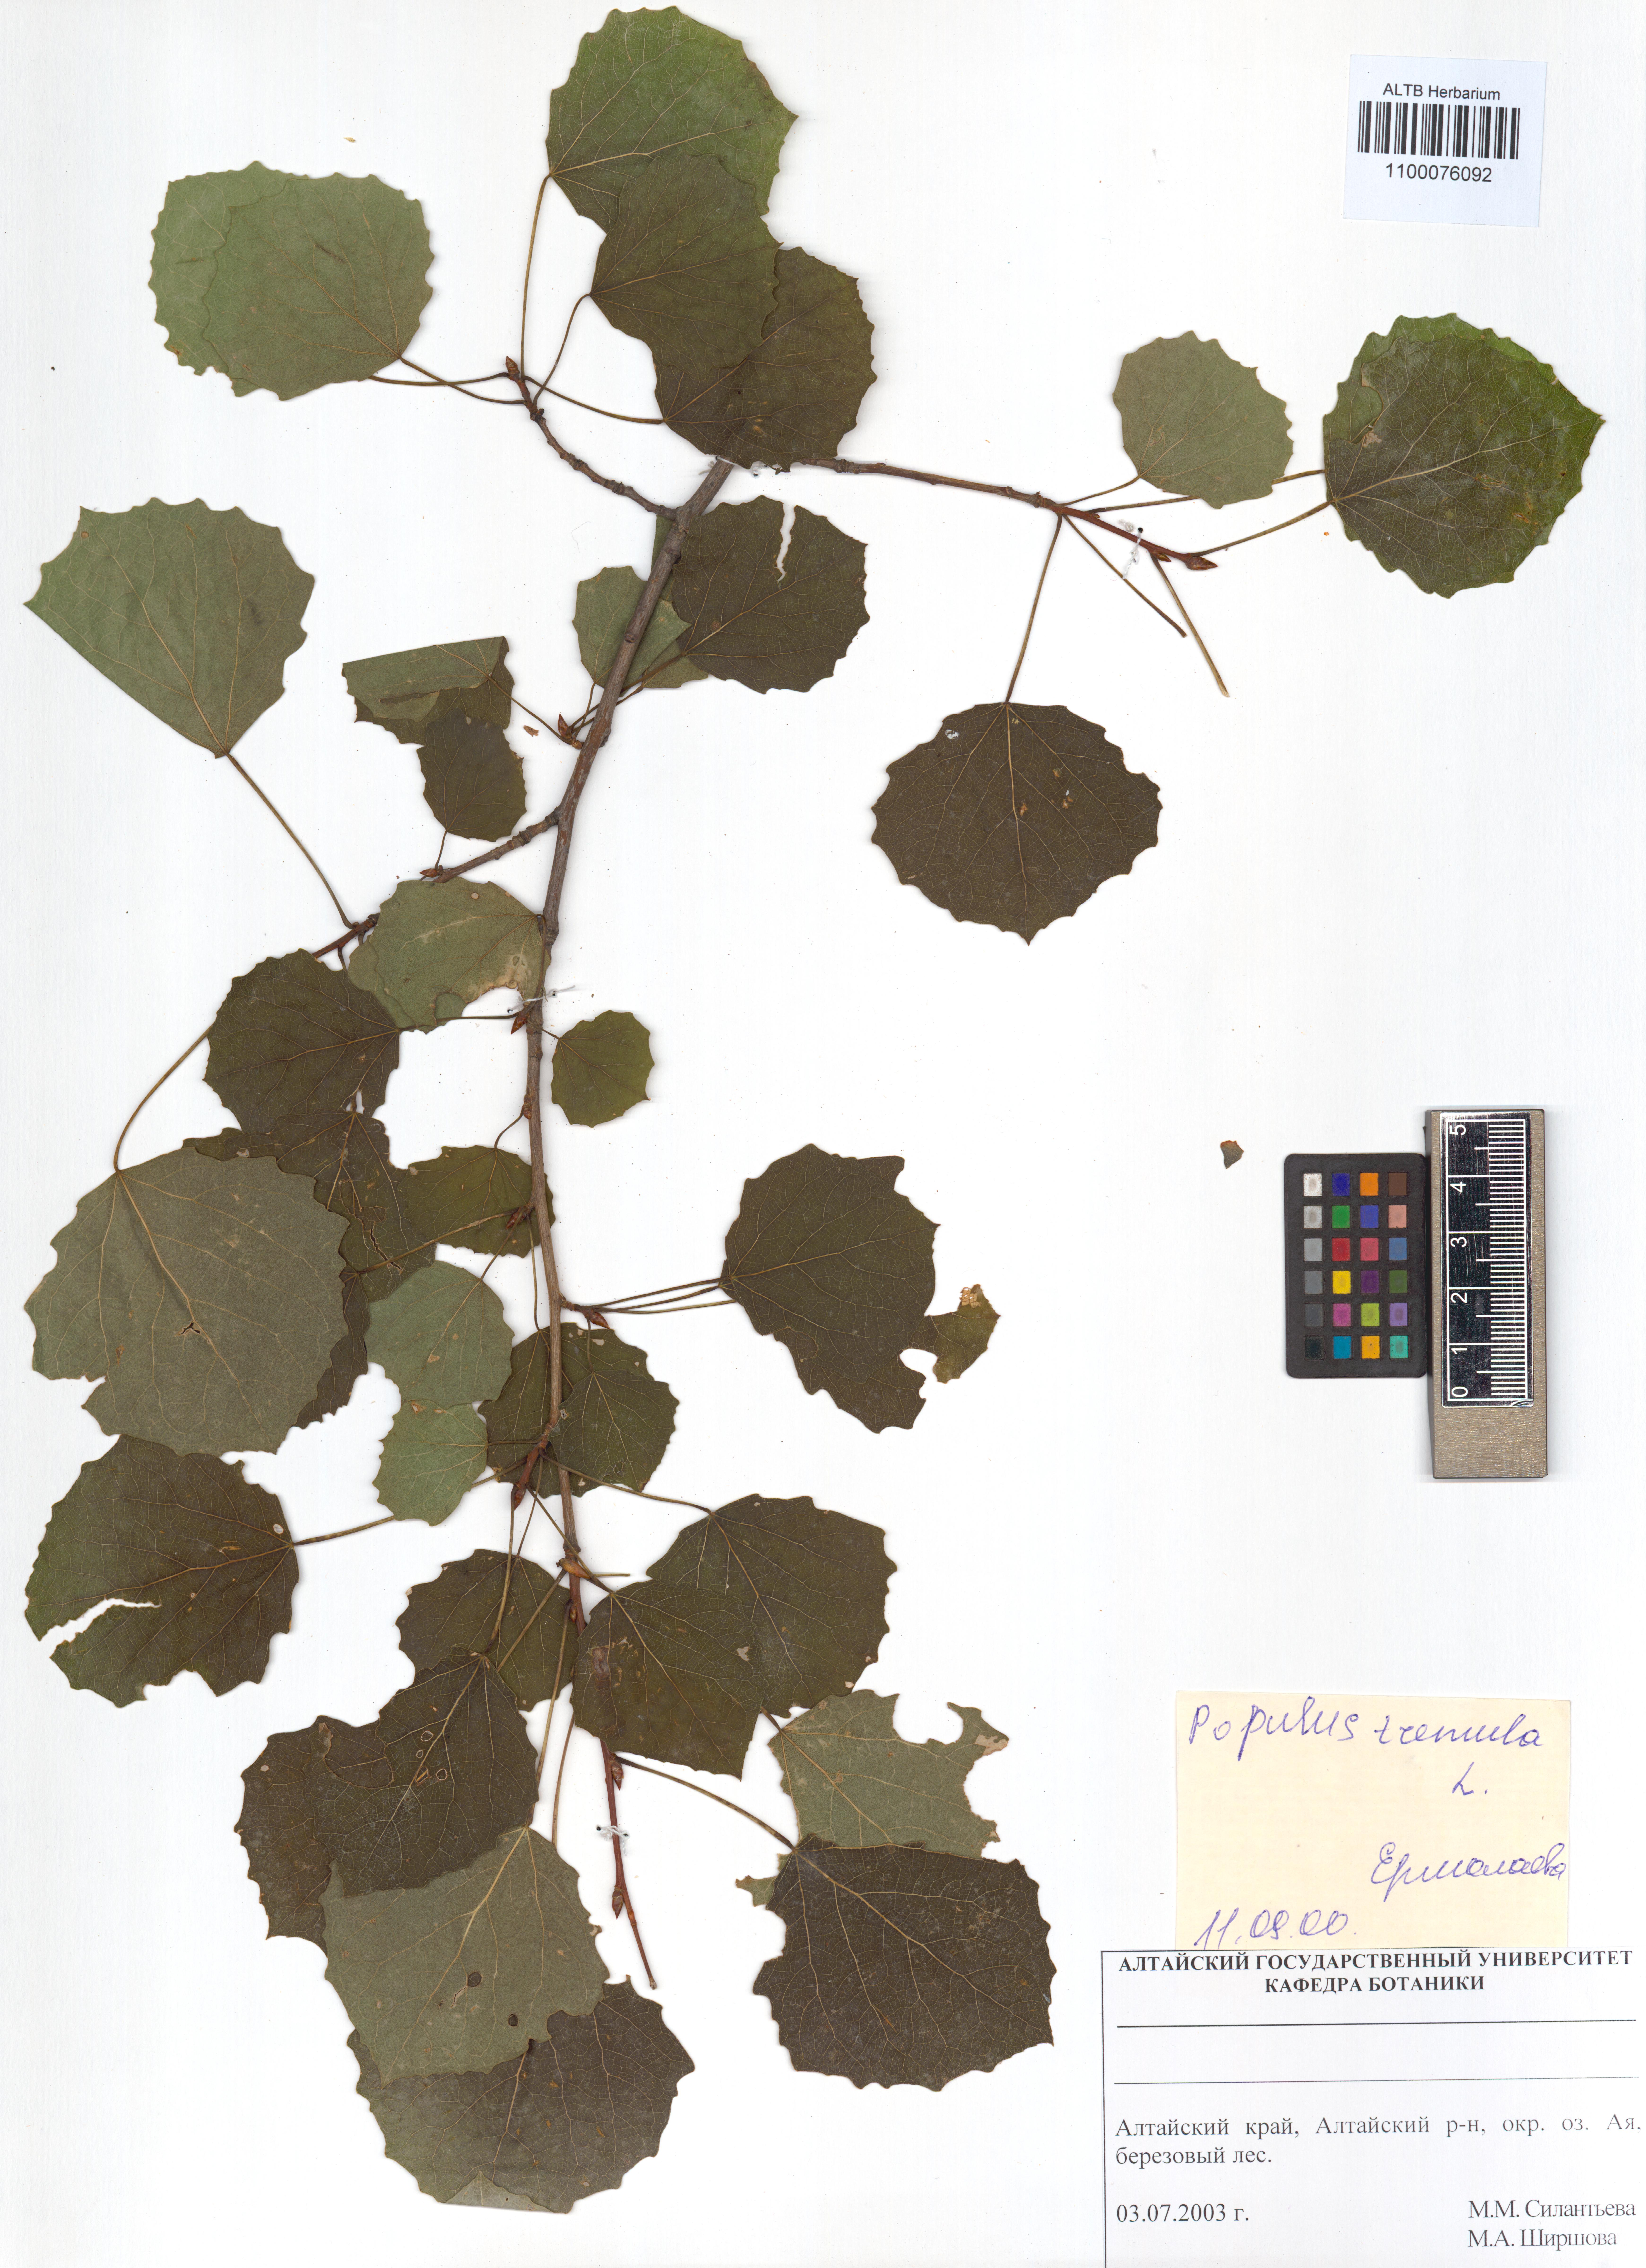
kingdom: Plantae
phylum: Tracheophyta
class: Magnoliopsida
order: Malpighiales
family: Salicaceae
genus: Populus
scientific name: Populus tremula
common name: European aspen
